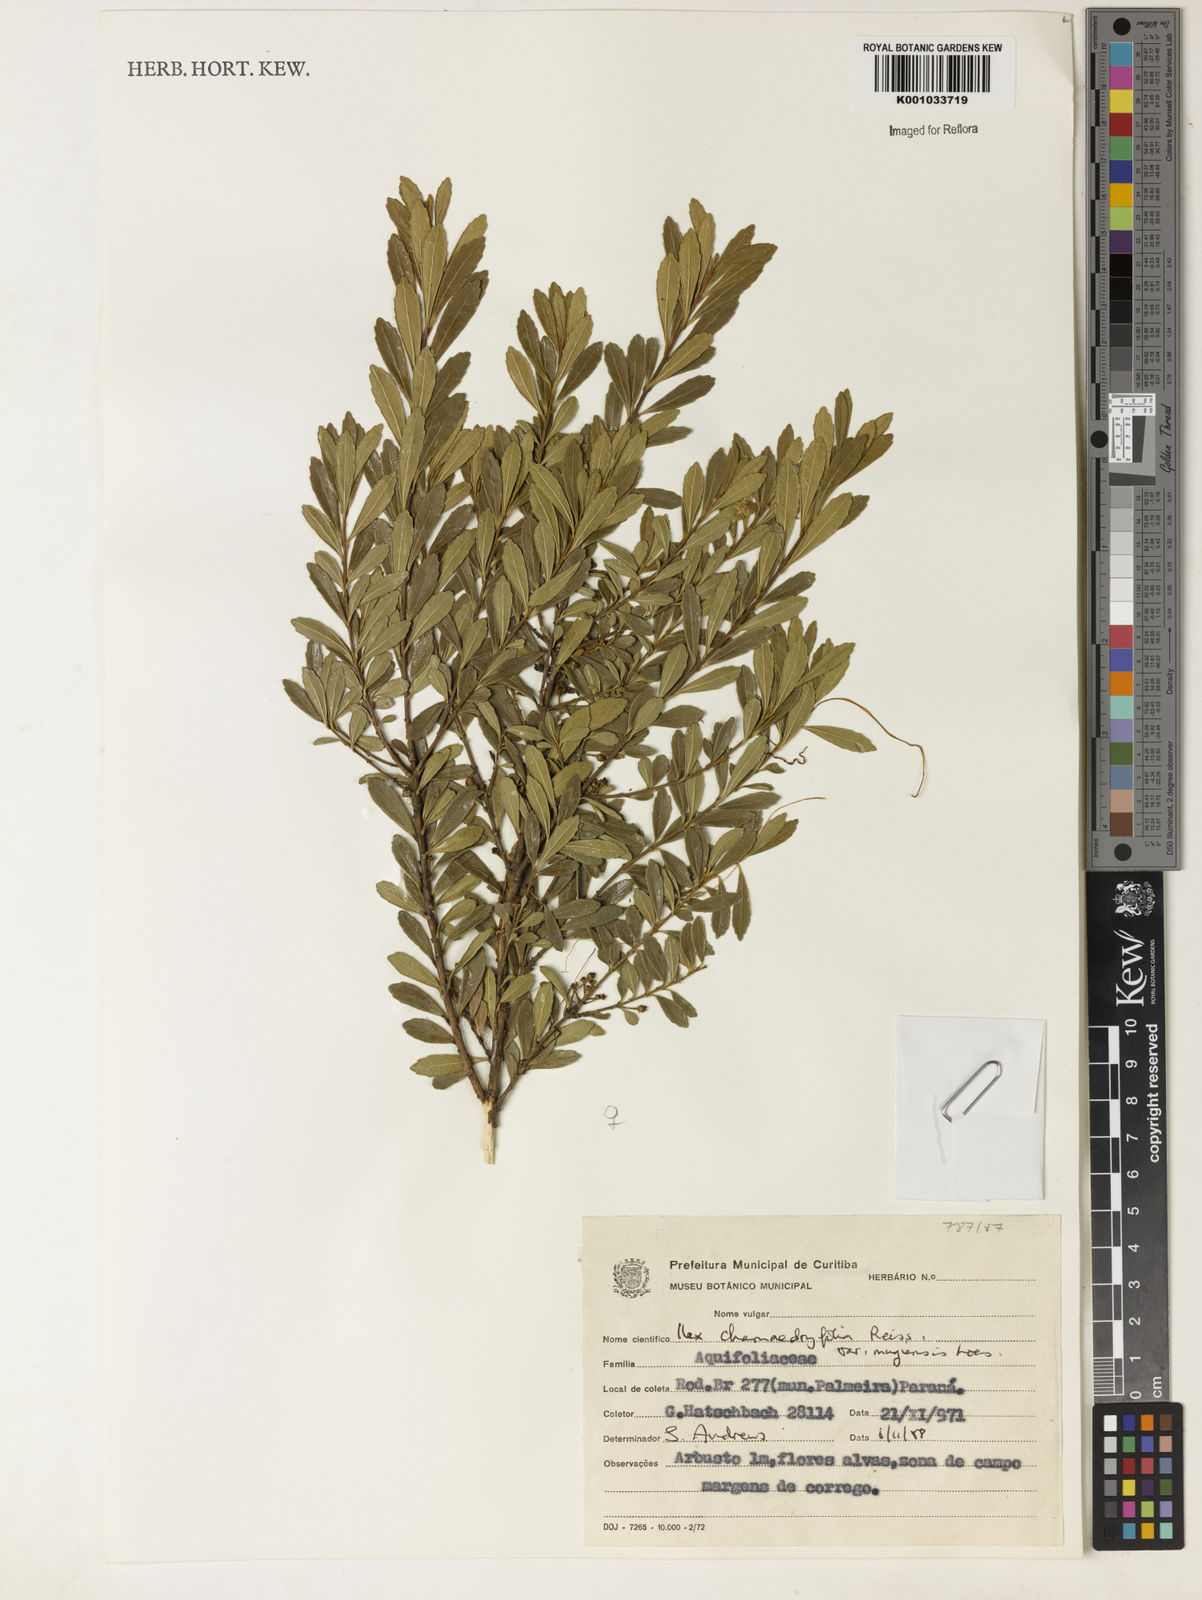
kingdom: Plantae
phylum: Tracheophyta
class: Magnoliopsida
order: Aquifoliales
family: Aquifoliaceae
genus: Ilex
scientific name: Ilex chamaedryfolia
